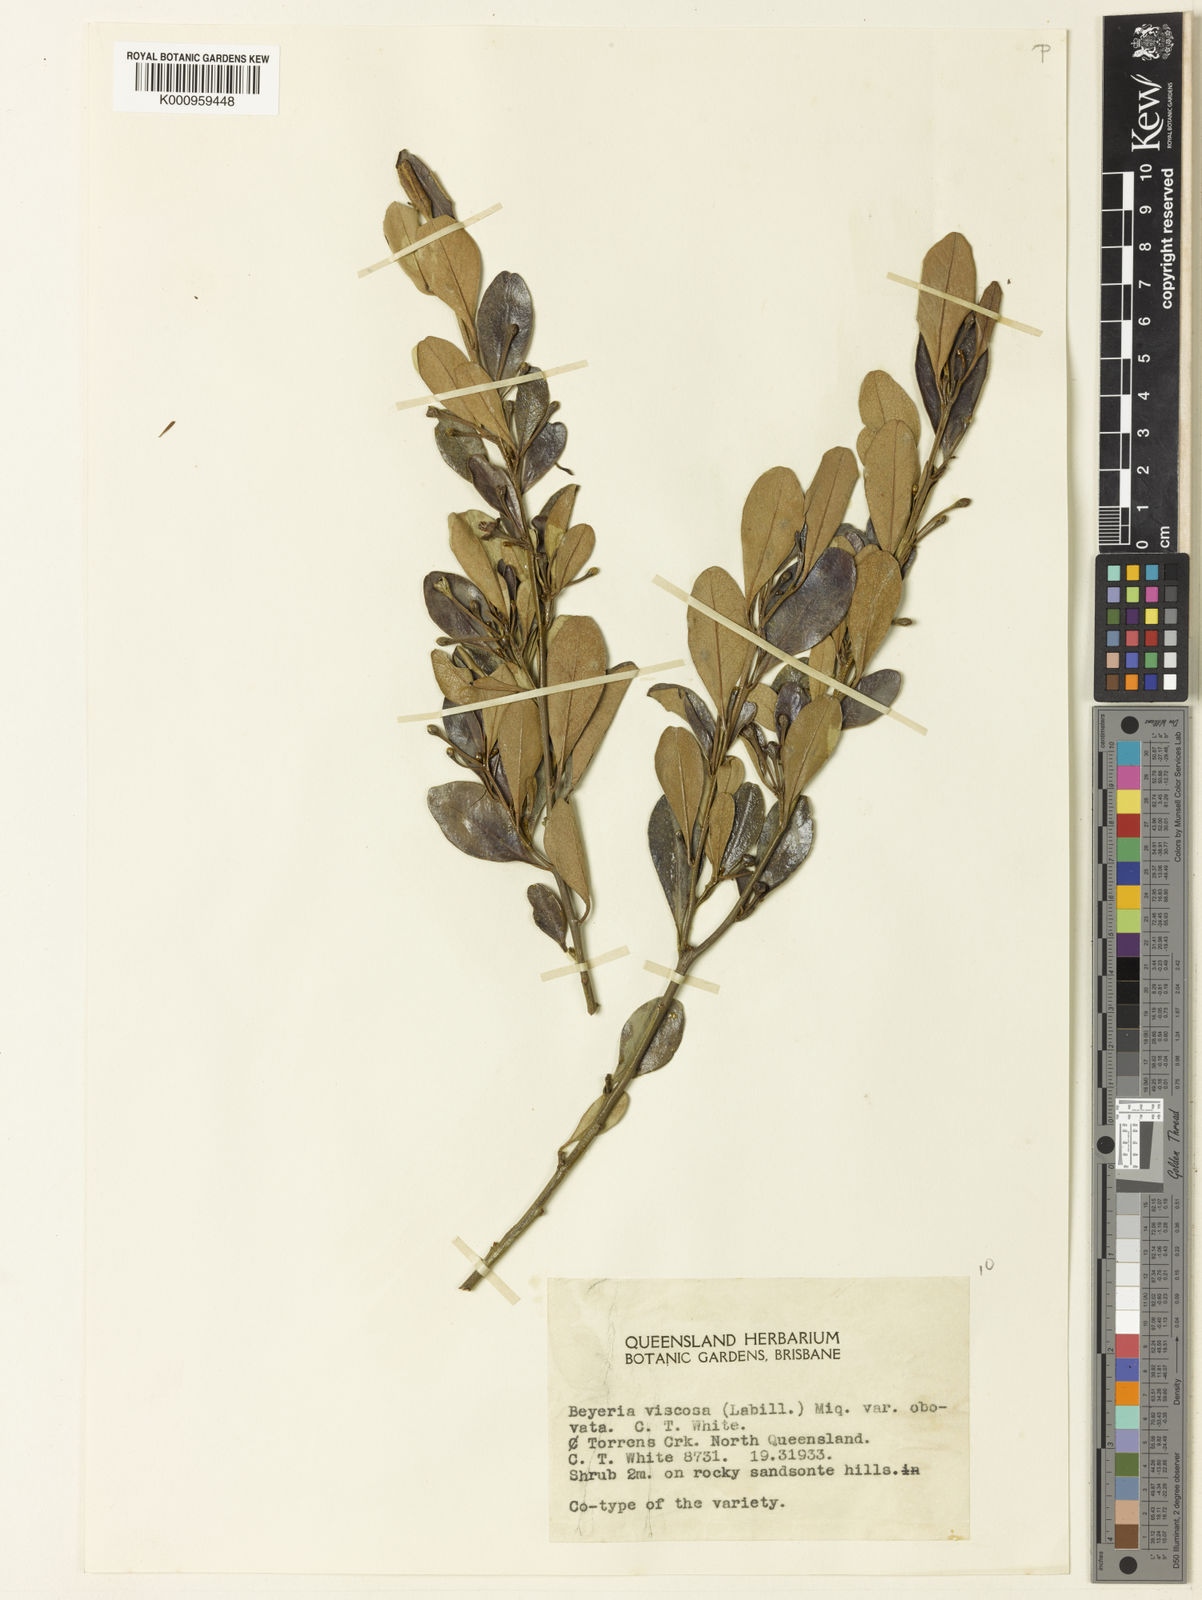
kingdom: Plantae
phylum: Tracheophyta
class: Magnoliopsida
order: Malpighiales
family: Euphorbiaceae
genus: Beyeria
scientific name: Beyeria viscosa
